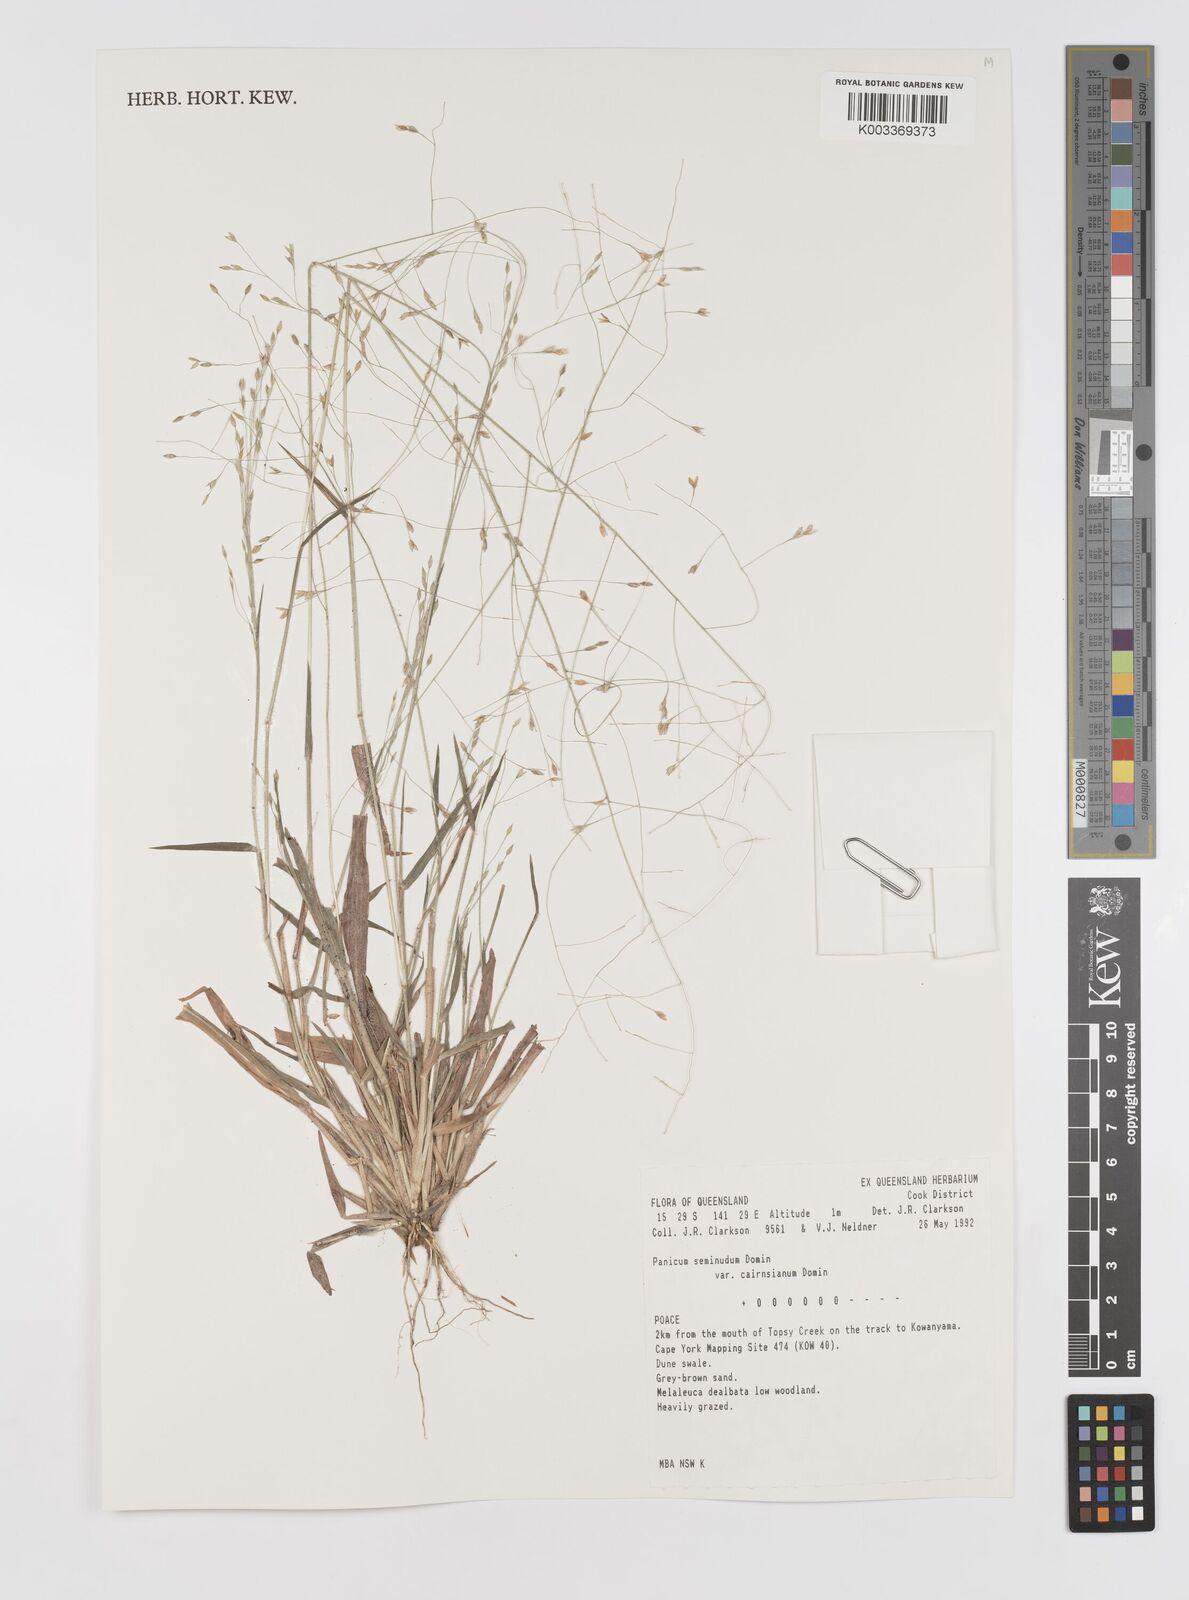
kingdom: Plantae
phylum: Tracheophyta
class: Liliopsida
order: Poales
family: Poaceae
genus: Panicum
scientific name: Panicum seminudum
